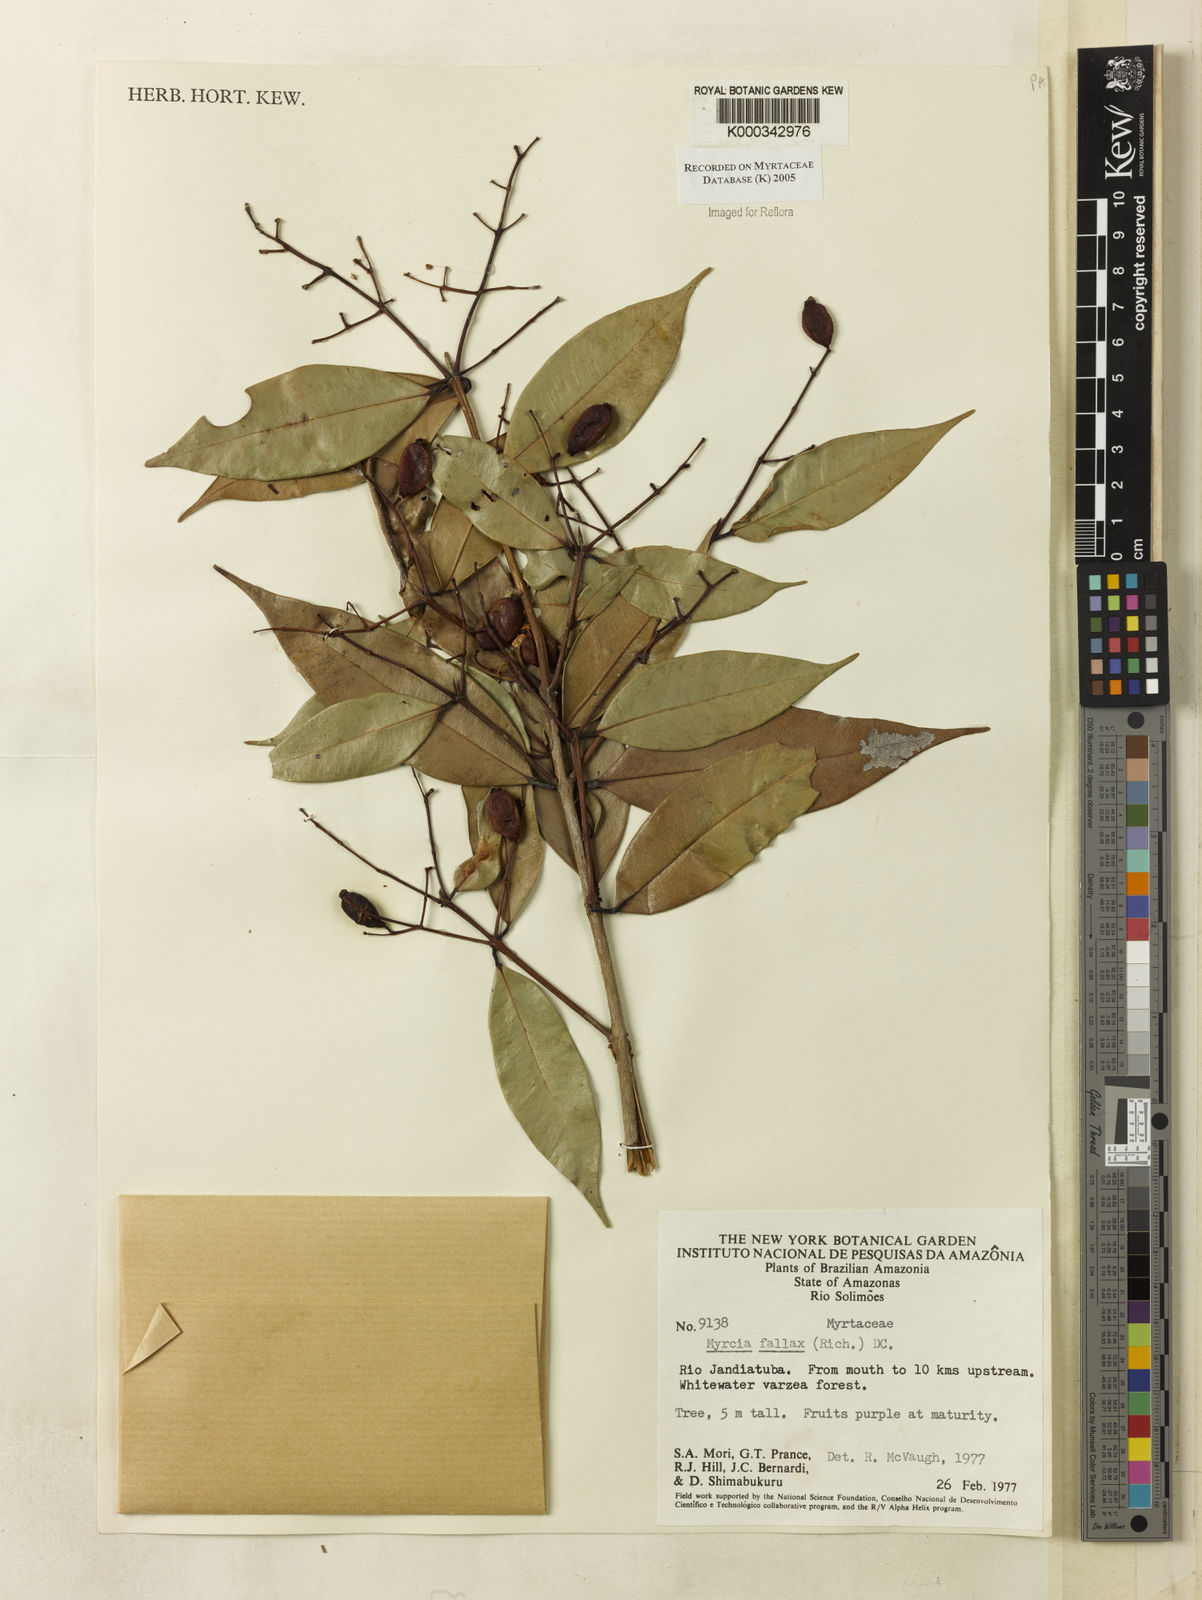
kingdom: Plantae
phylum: Tracheophyta
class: Magnoliopsida
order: Myrtales
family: Myrtaceae
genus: Myrcia
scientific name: Myrcia splendens
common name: Surinam cherry
